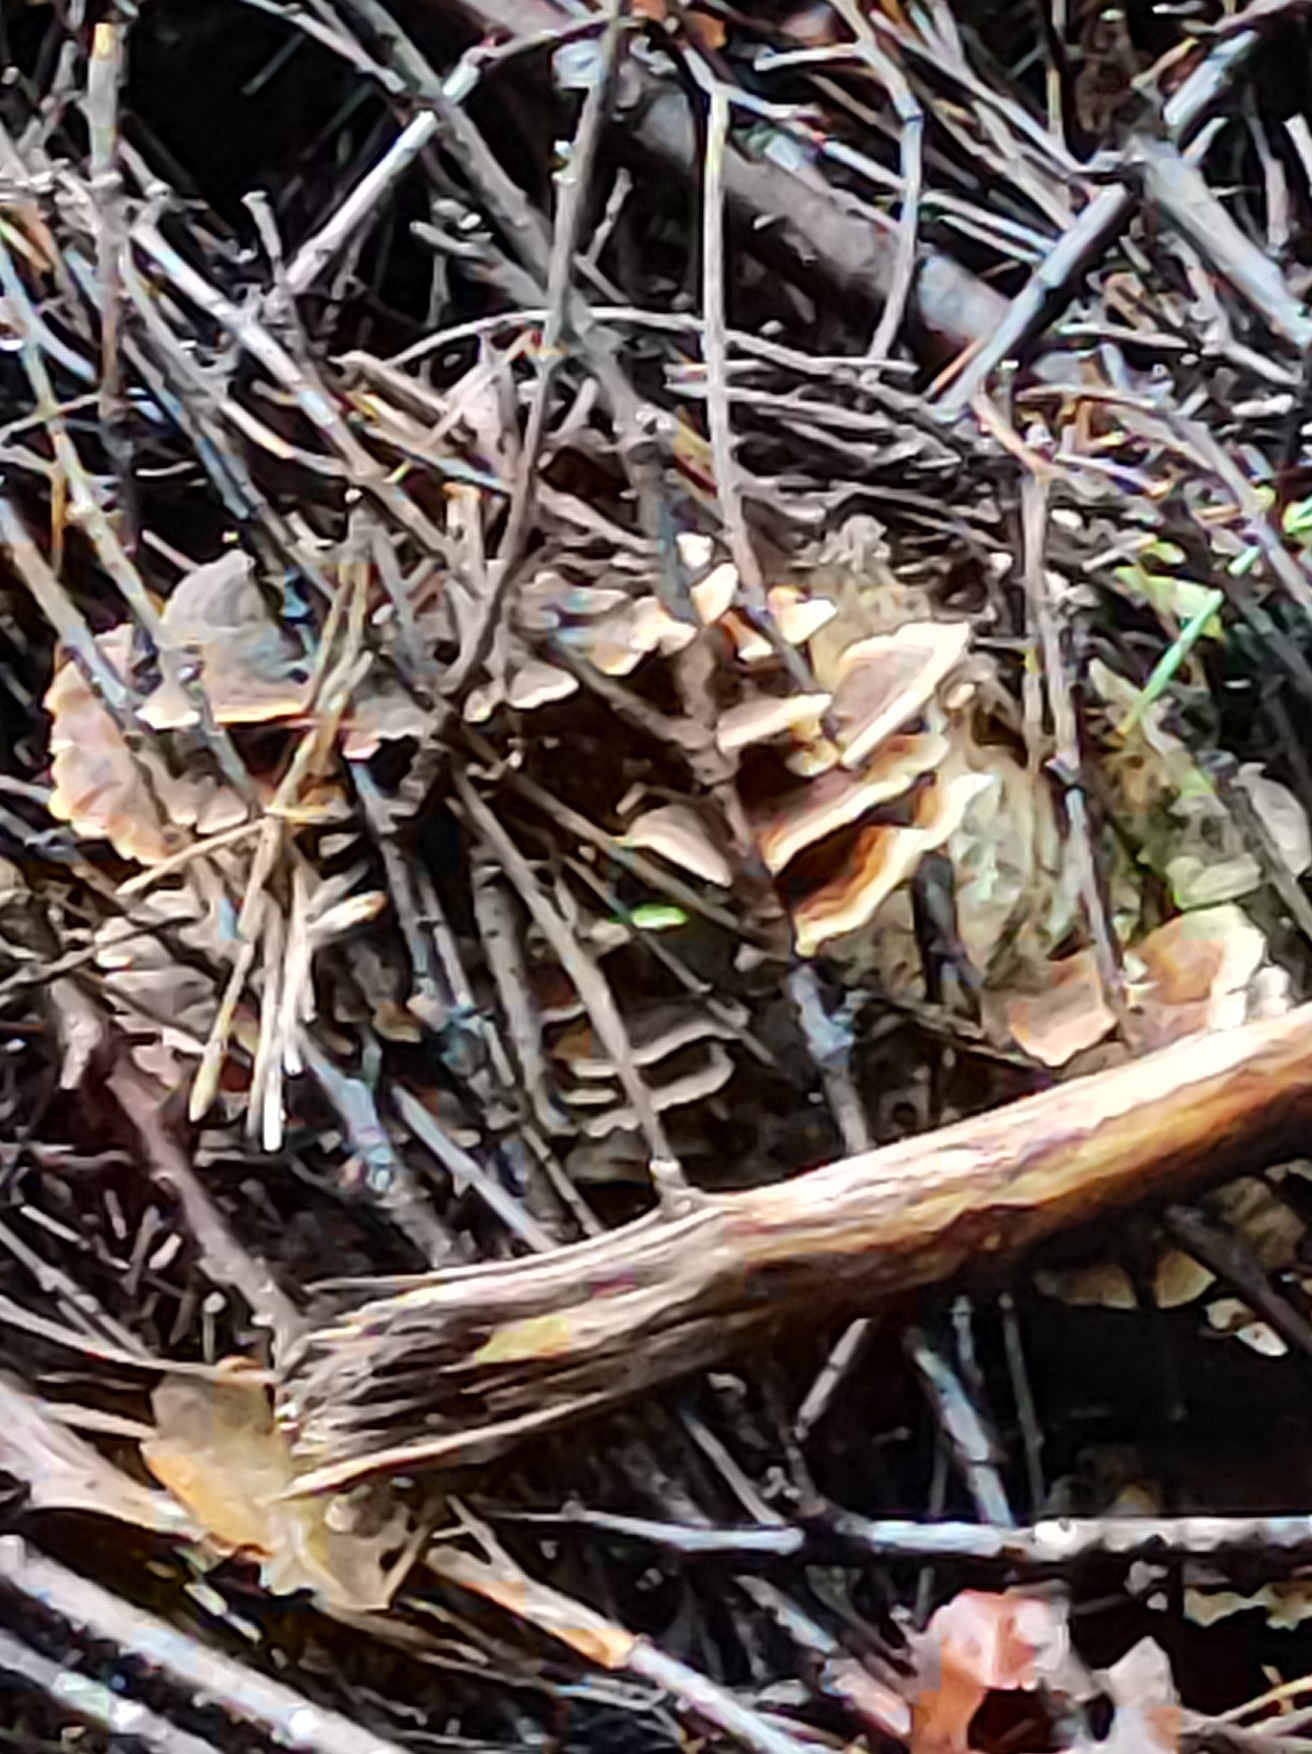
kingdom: Fungi
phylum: Basidiomycota
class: Agaricomycetes
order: Polyporales
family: Polyporaceae
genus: Trametes
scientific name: Trametes versicolor
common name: Broget læderporesvamp
